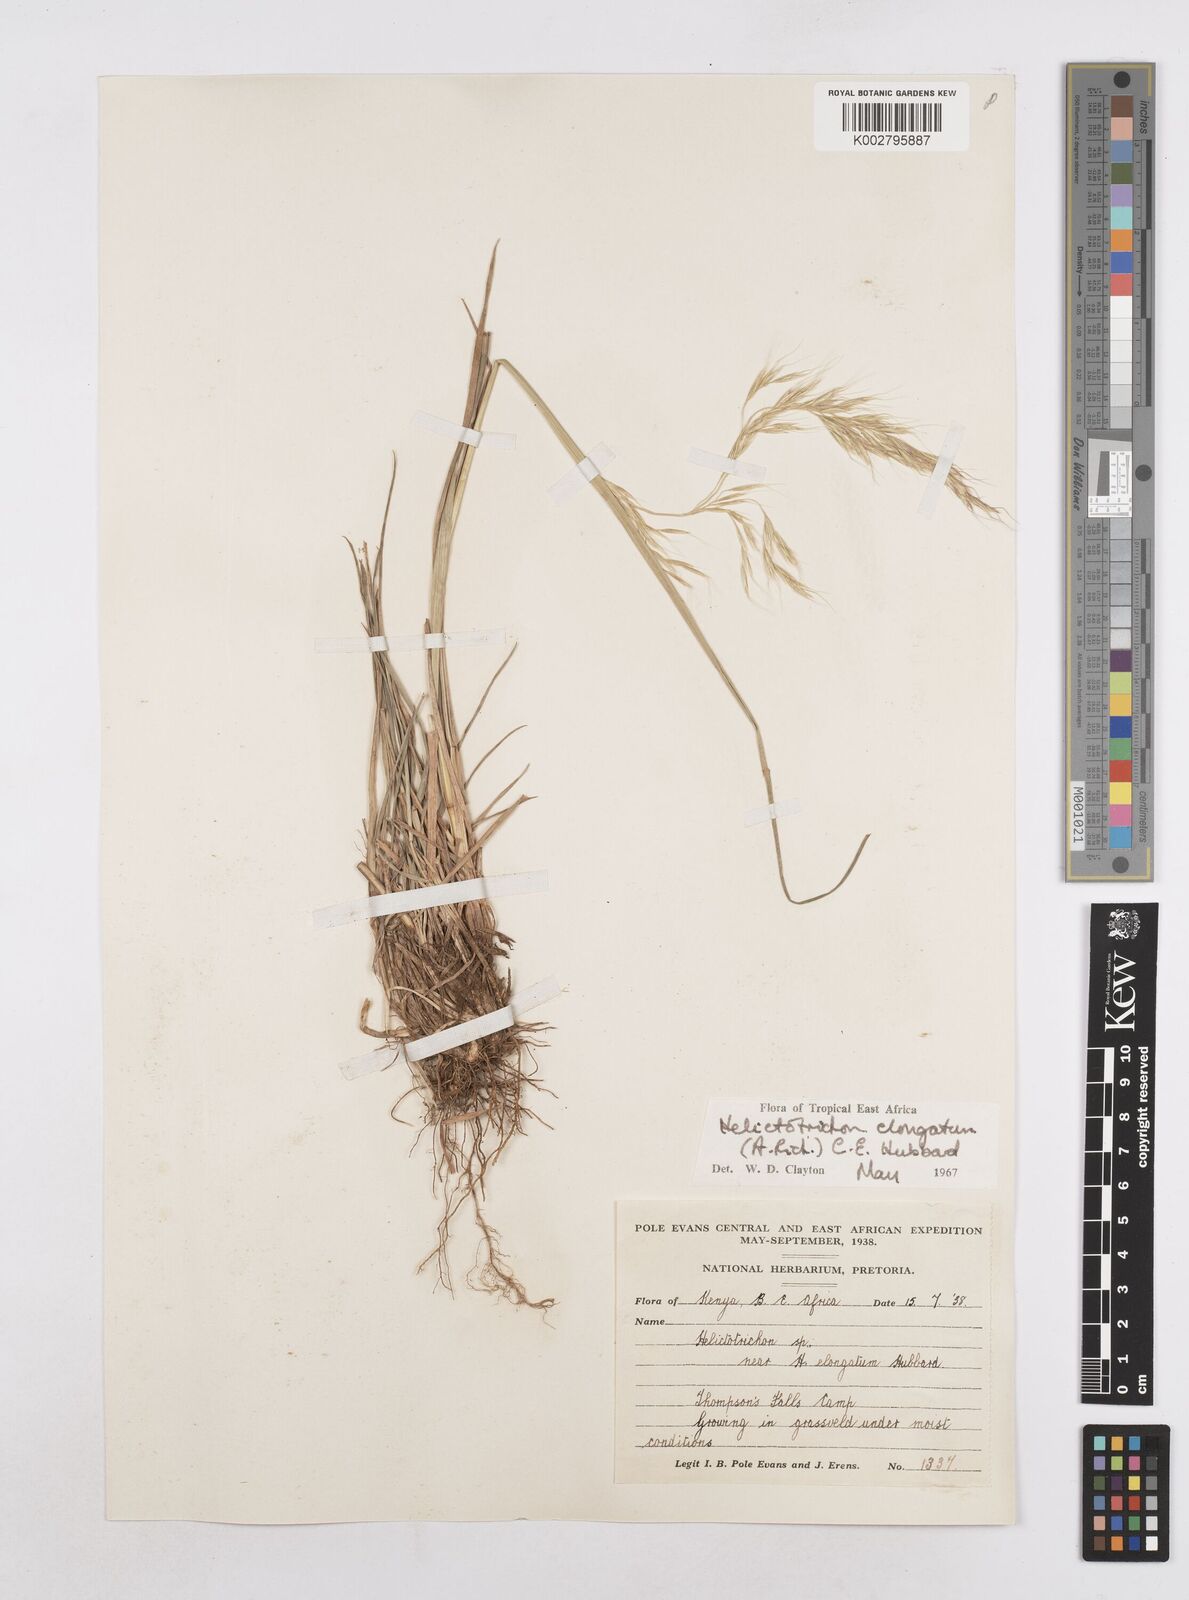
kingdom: Plantae
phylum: Tracheophyta
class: Liliopsida
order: Poales
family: Poaceae
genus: Trisetopsis
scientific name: Trisetopsis elongata
